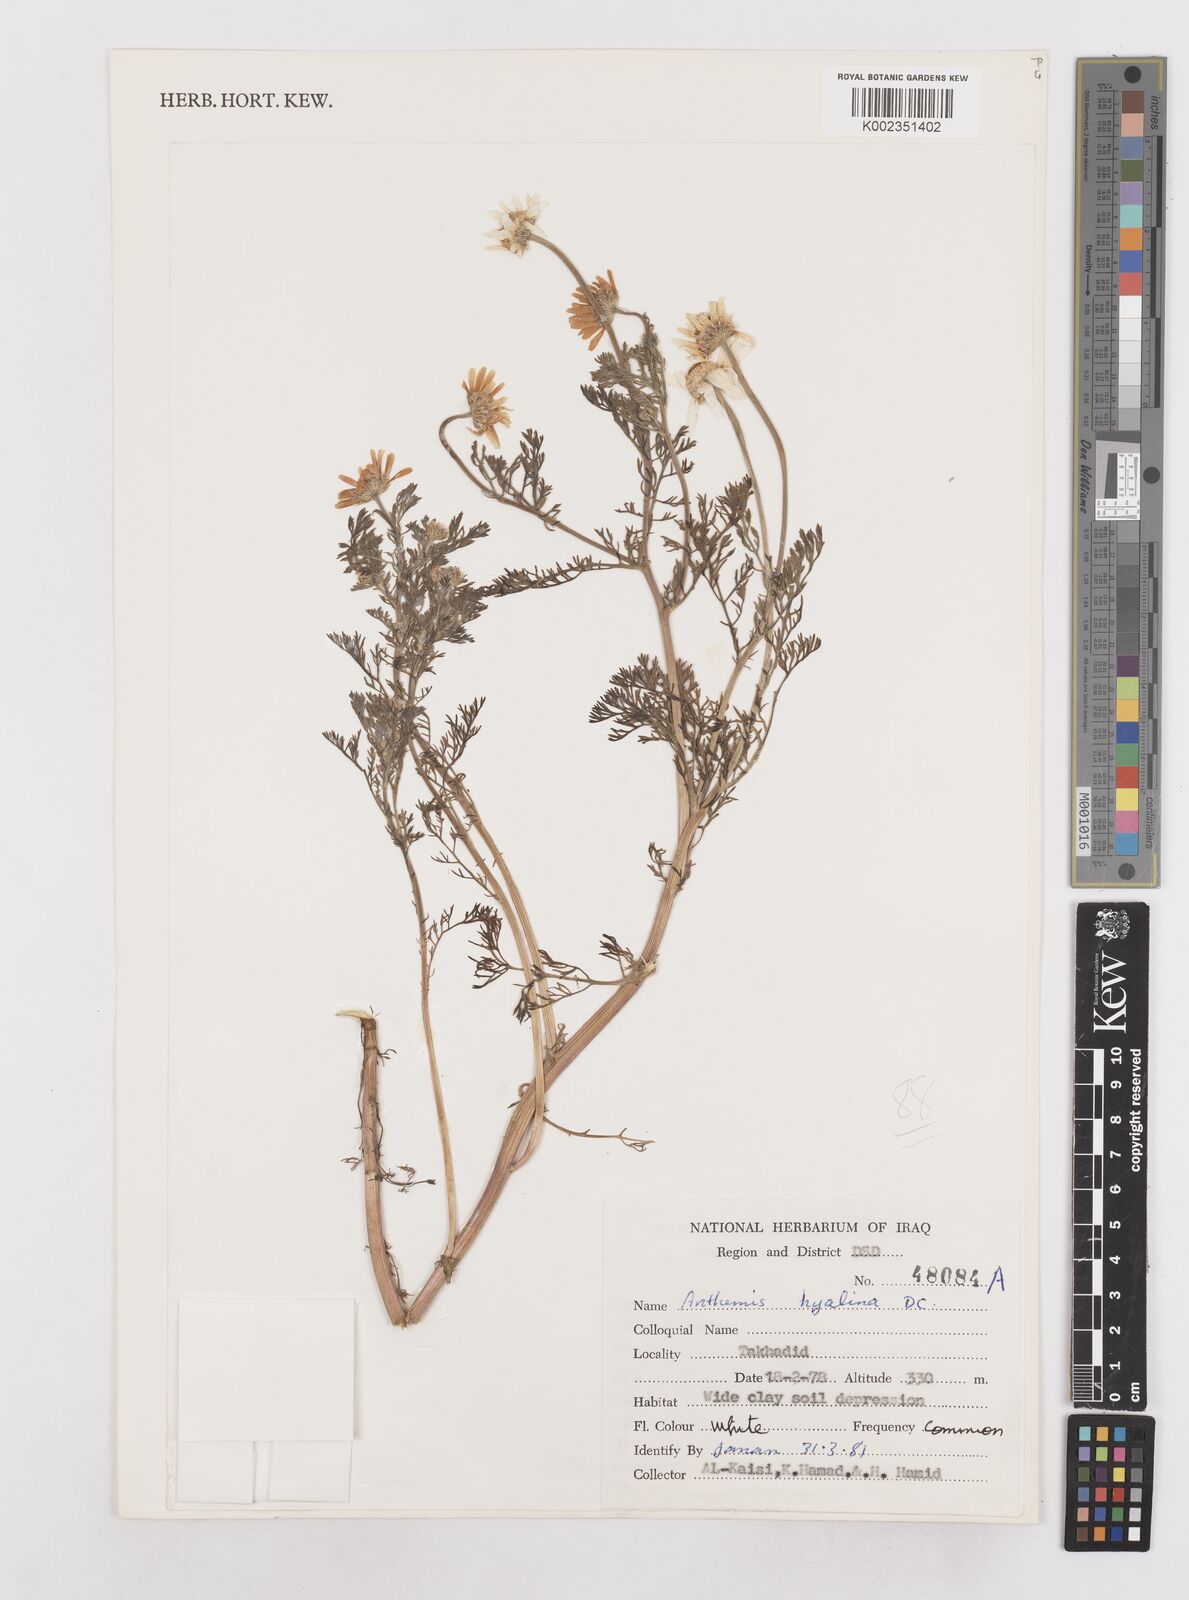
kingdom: Plantae
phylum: Tracheophyta
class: Magnoliopsida
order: Asterales
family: Asteraceae
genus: Anthemis
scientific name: Anthemis hyalina
